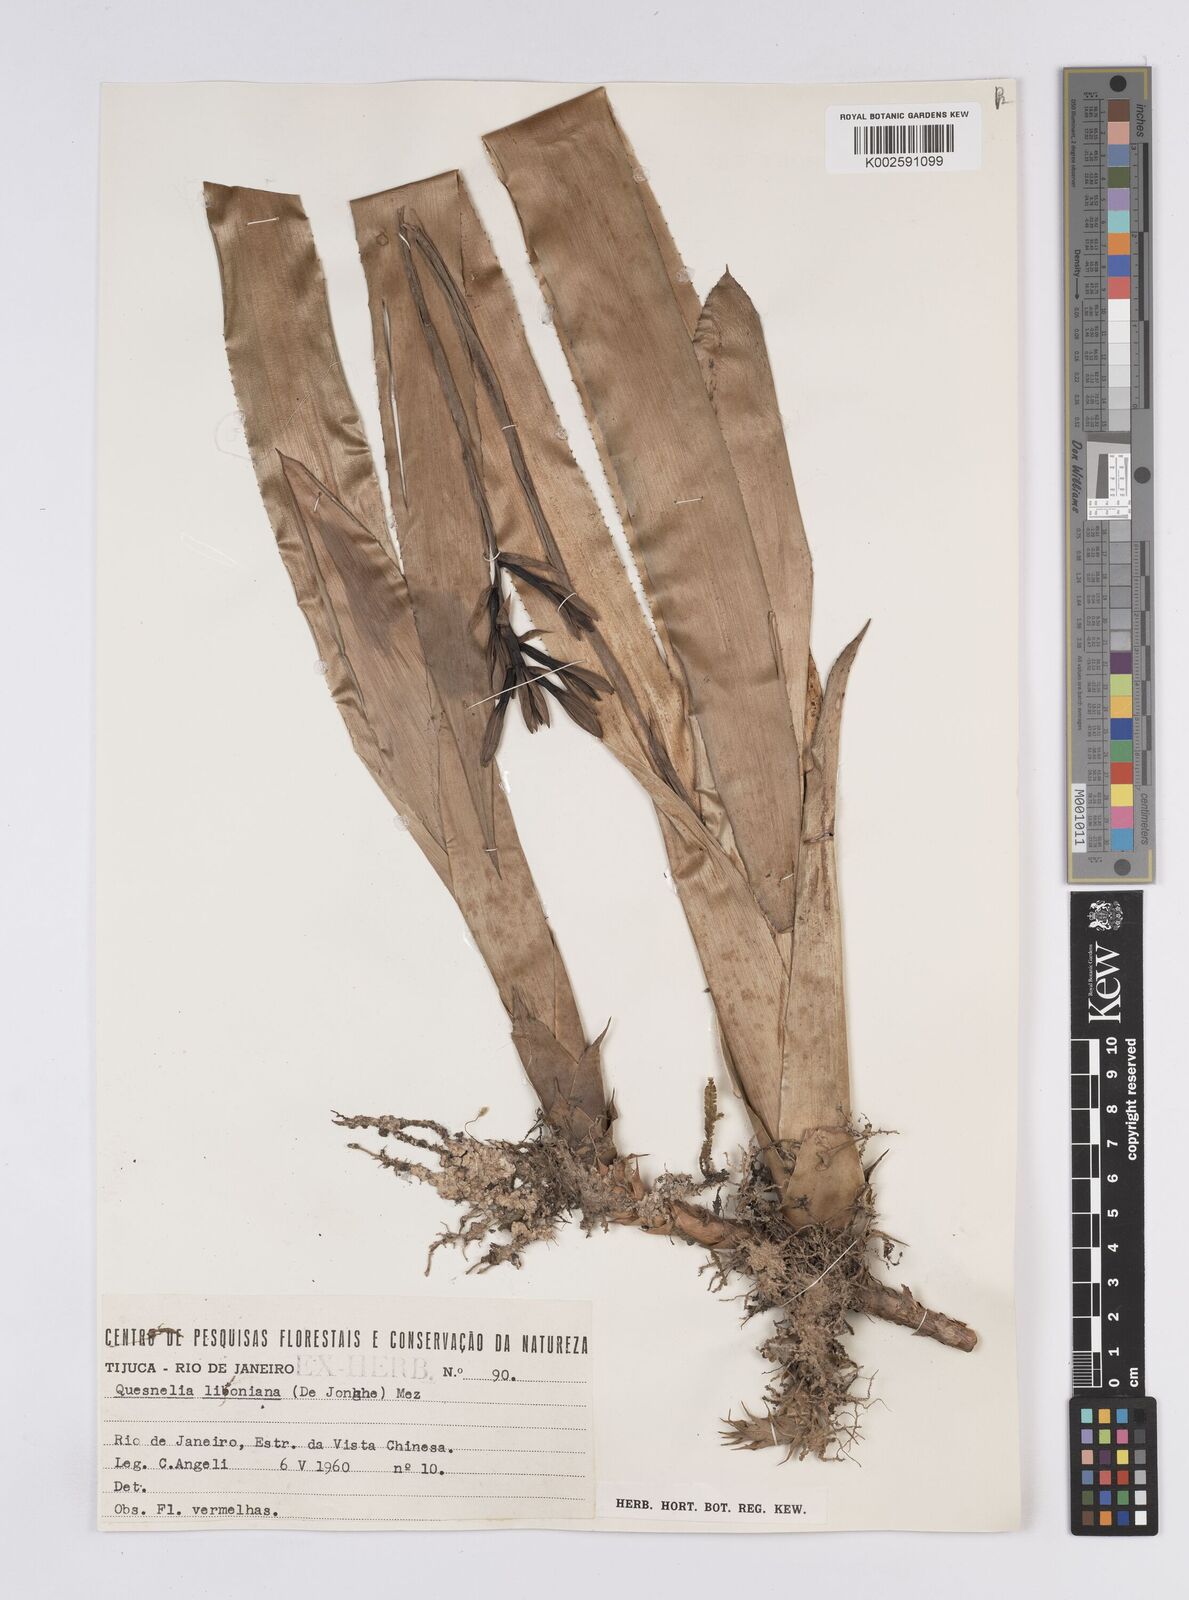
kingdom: Plantae
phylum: Tracheophyta
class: Liliopsida
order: Poales
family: Bromeliaceae
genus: Quesnelia
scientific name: Quesnelia liboniana
